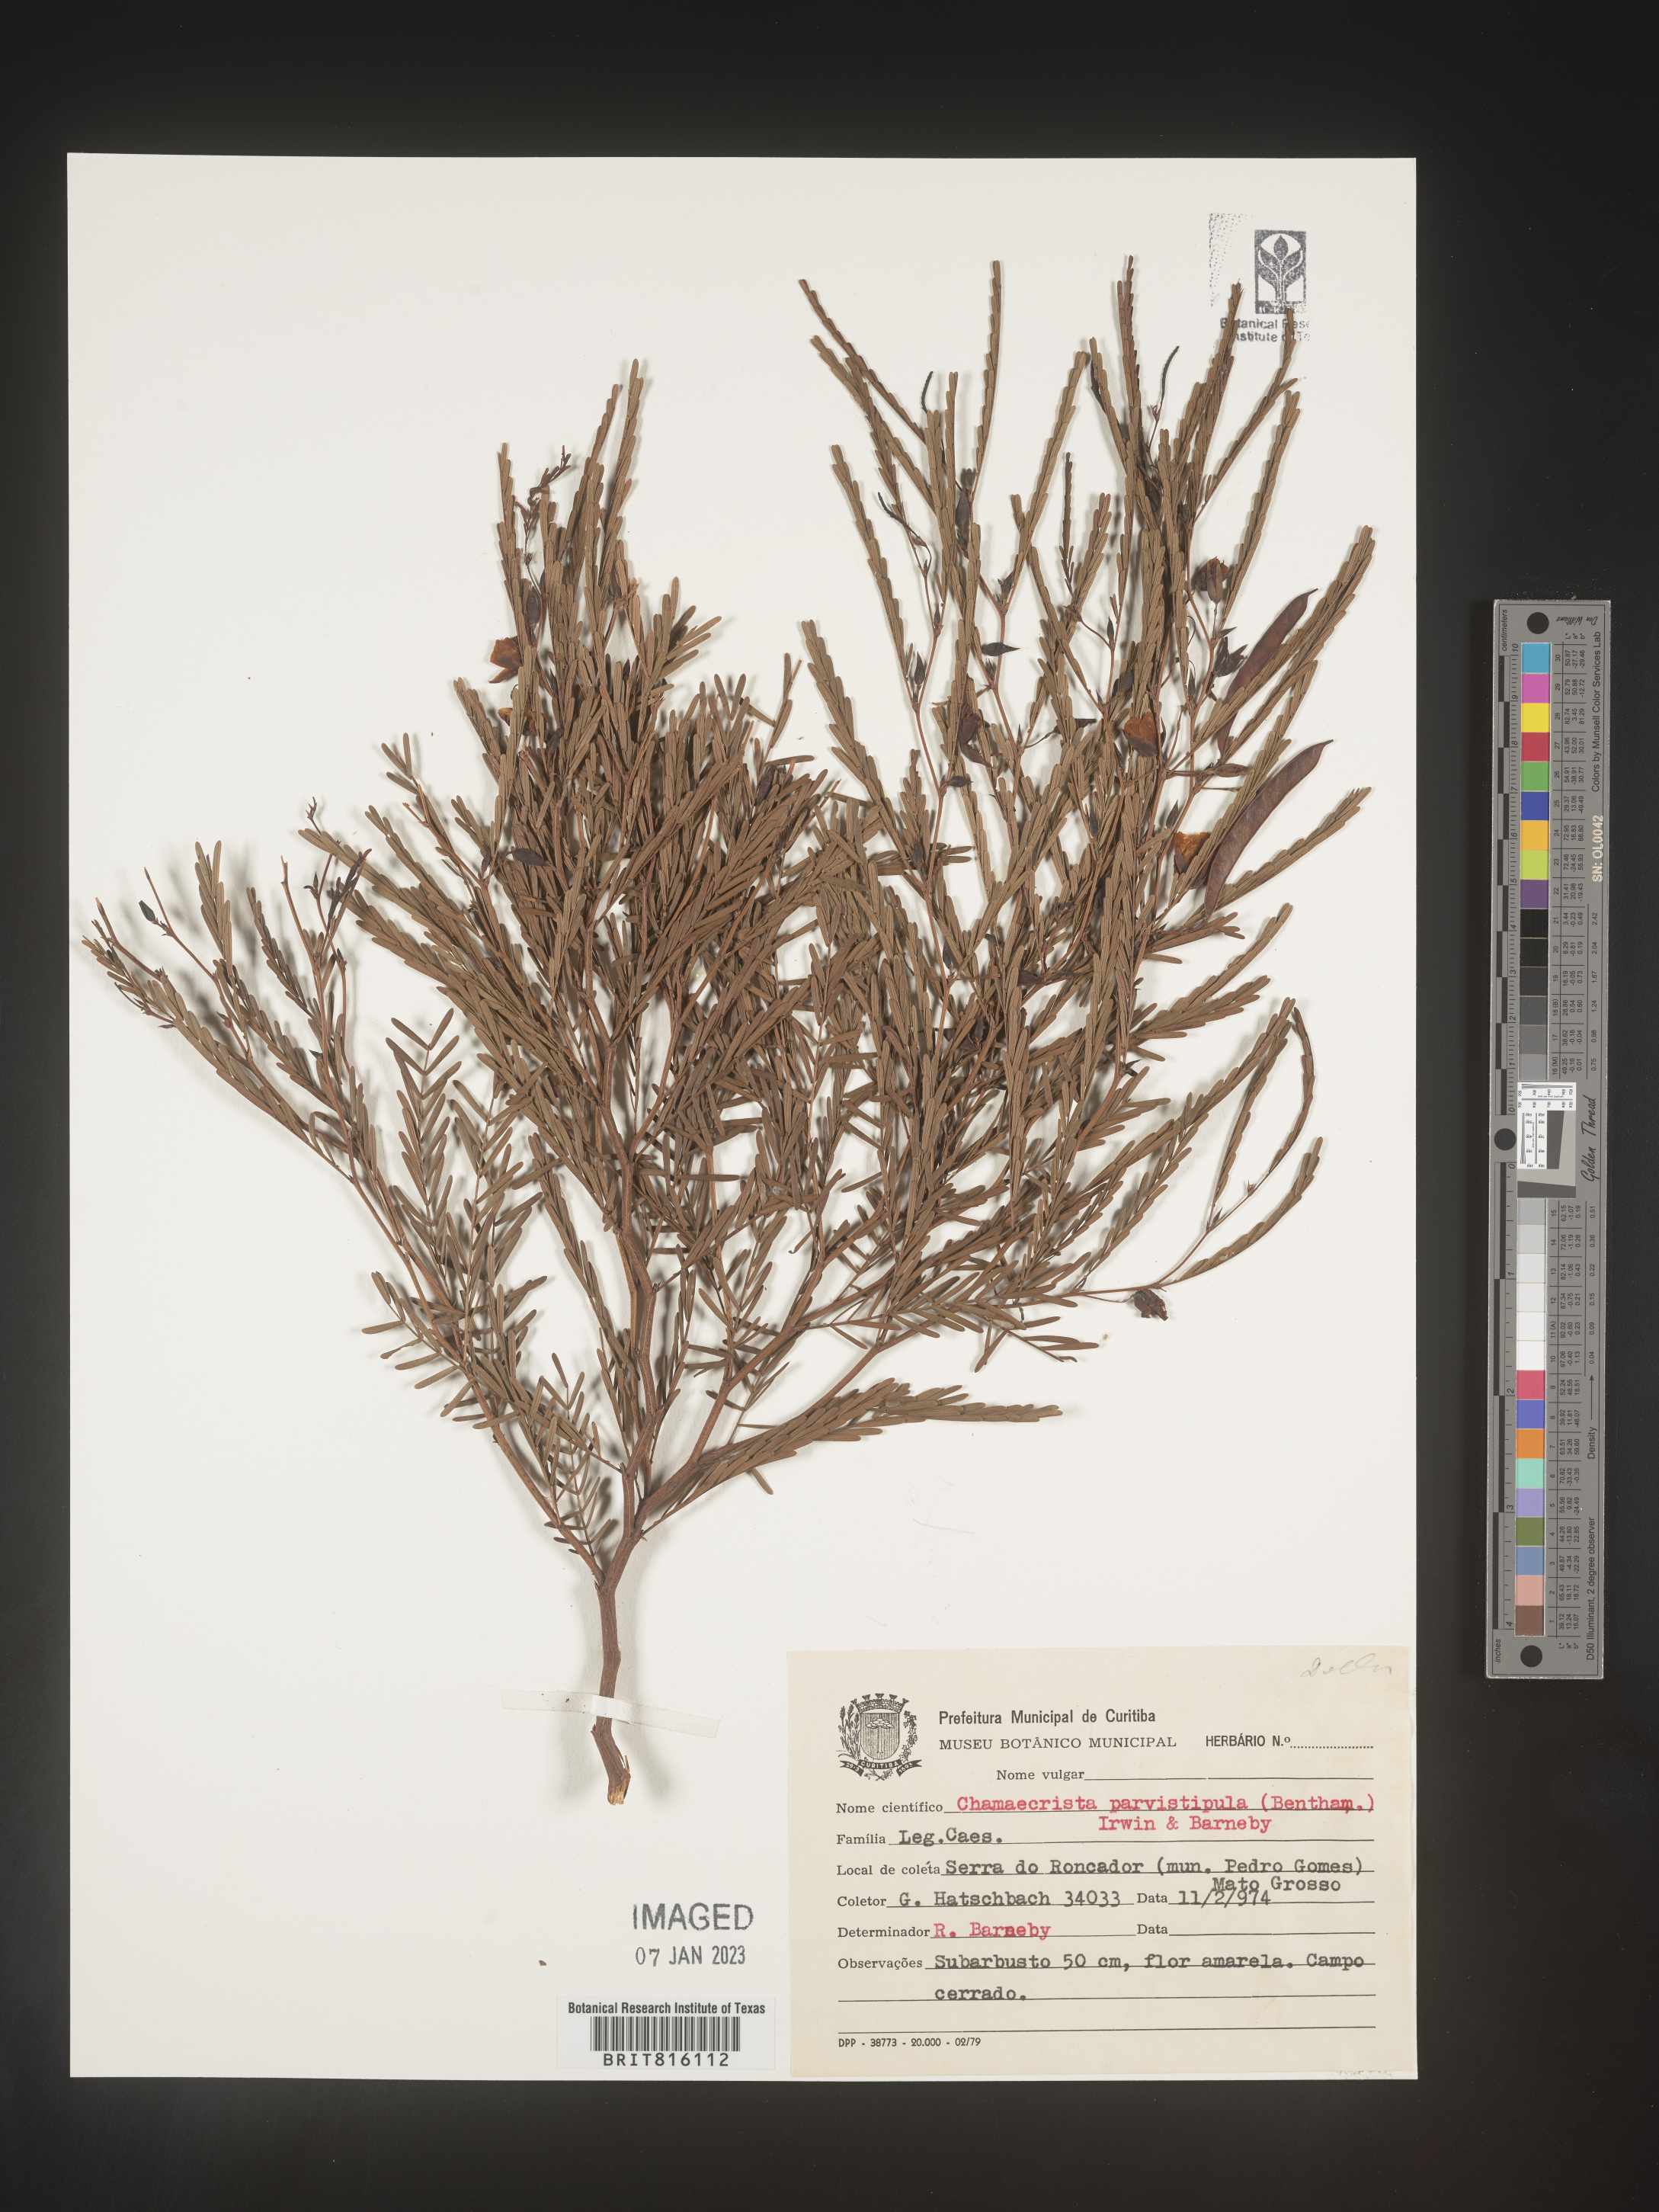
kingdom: Plantae
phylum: Tracheophyta
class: Magnoliopsida
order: Fabales
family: Fabaceae
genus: Chamaecrista
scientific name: Chamaecrista
